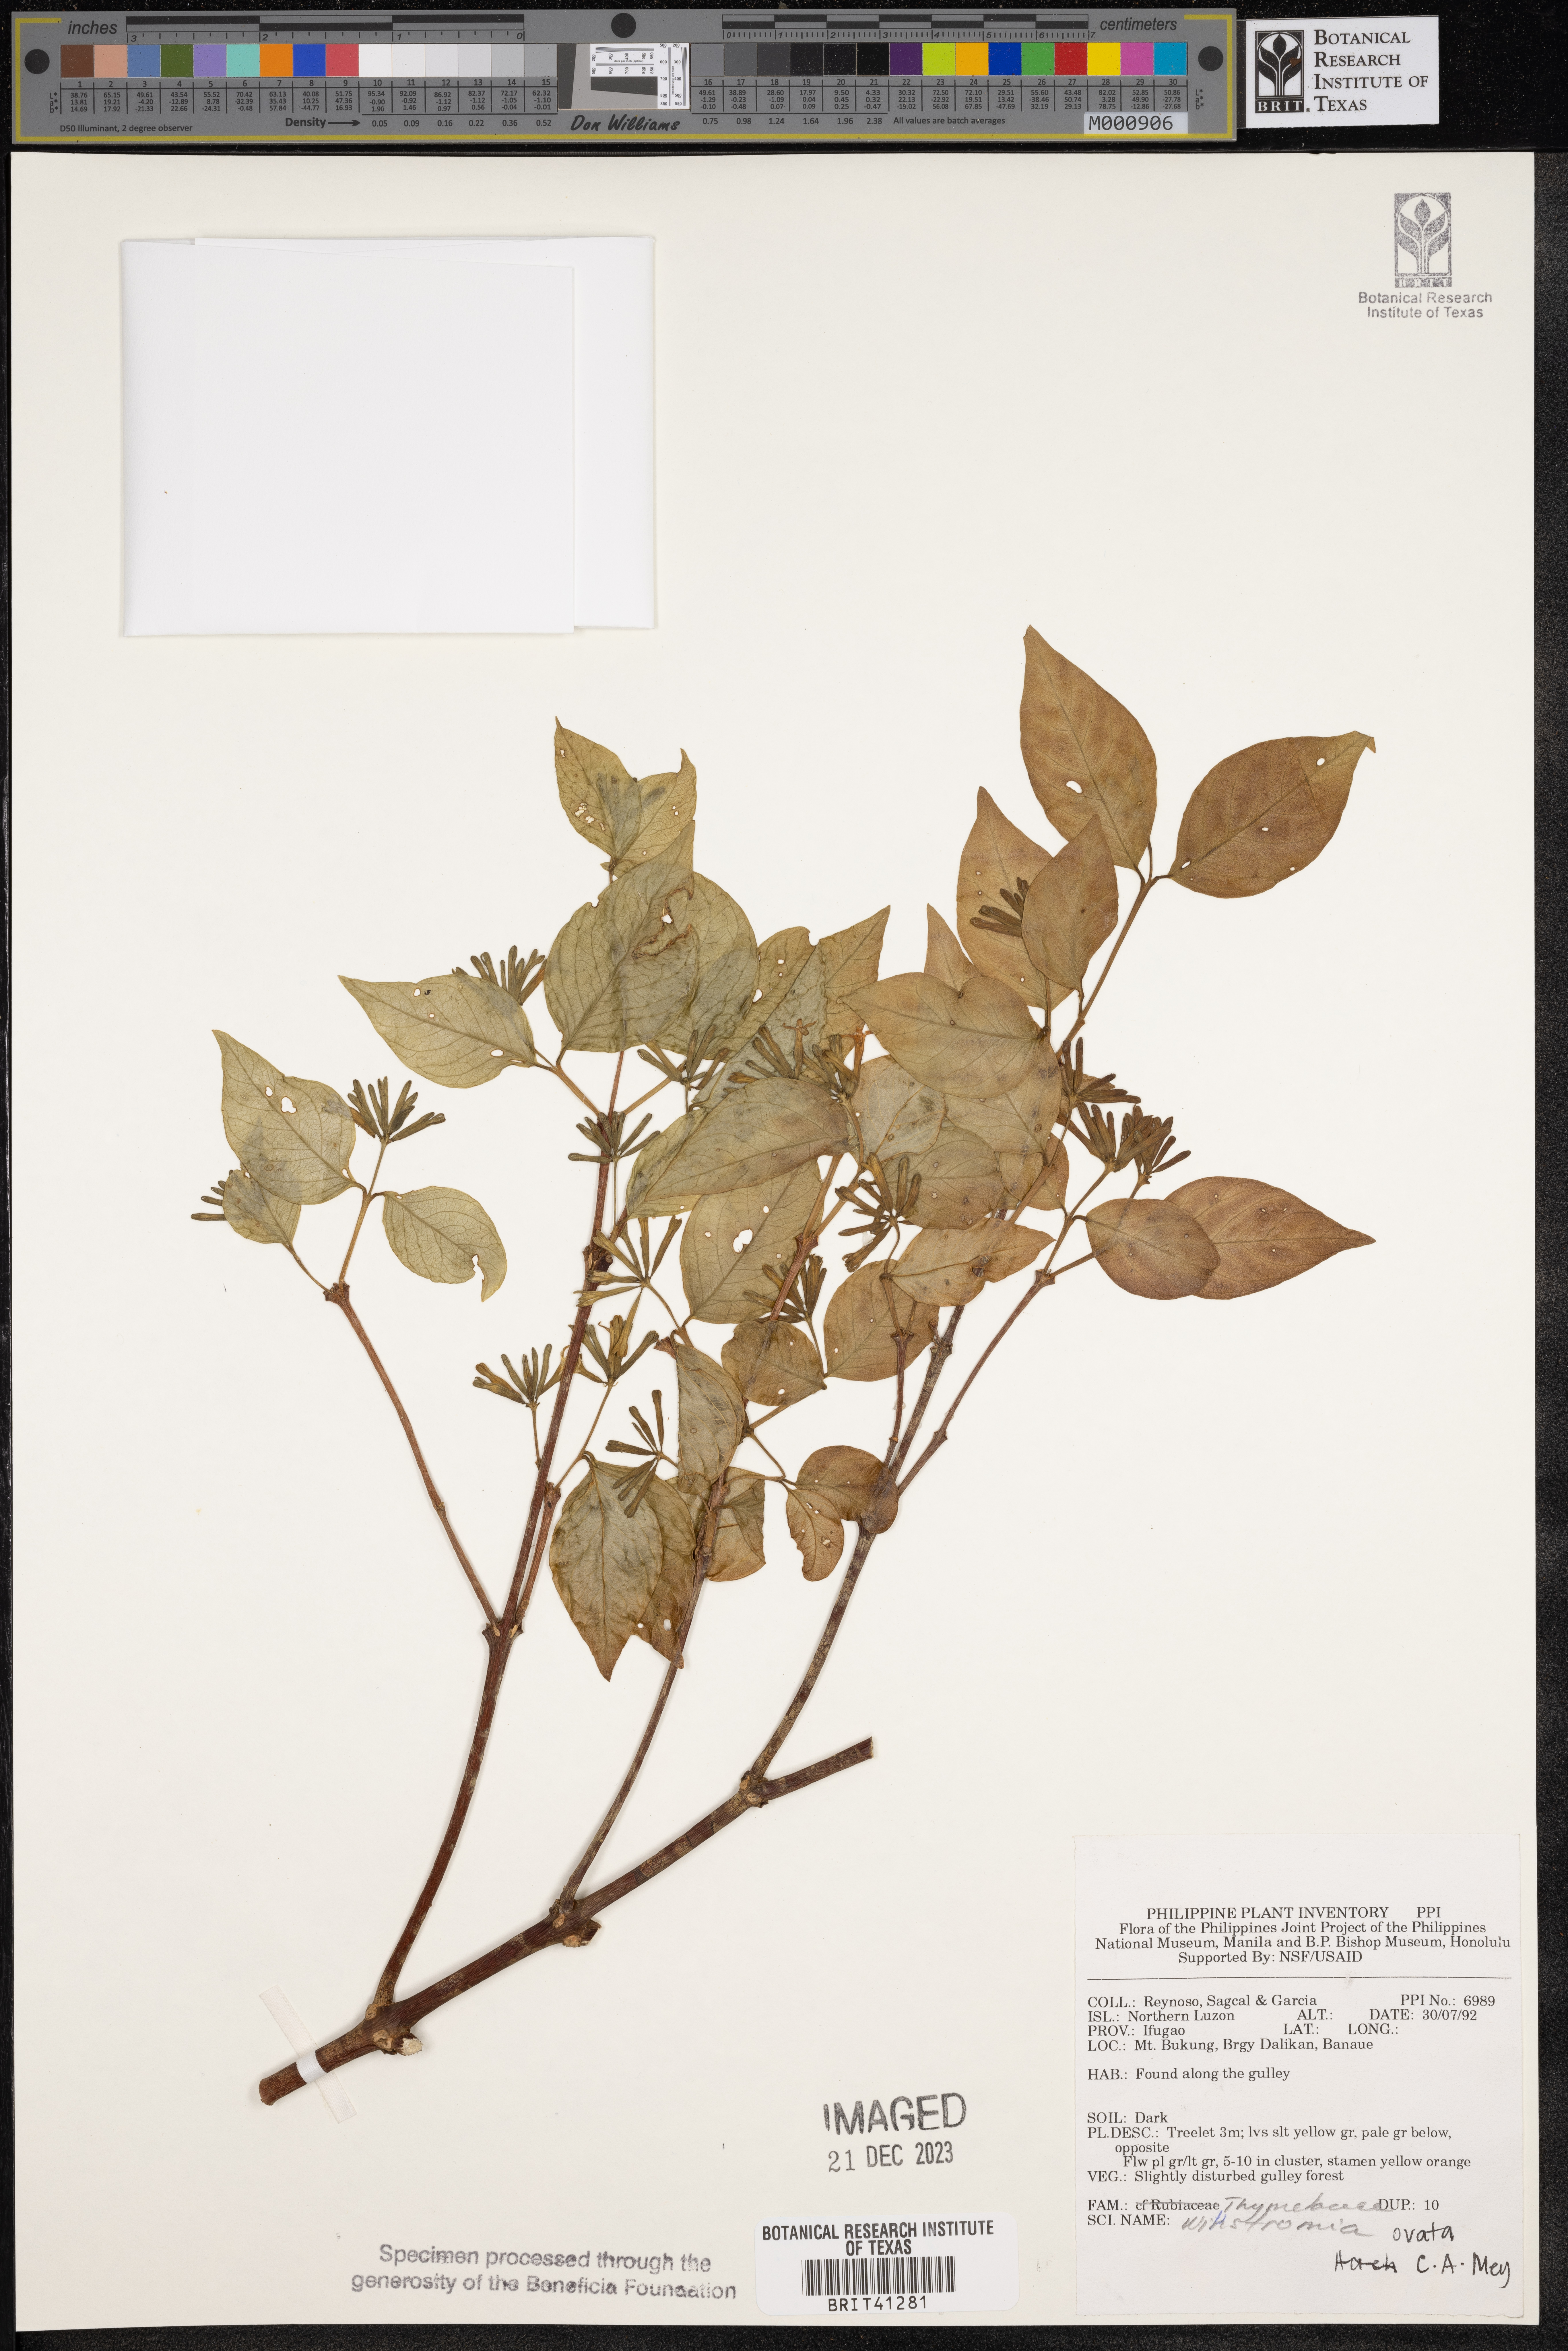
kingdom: Plantae
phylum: Tracheophyta
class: Magnoliopsida
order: Malvales
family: Thymelaeaceae
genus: Wikstroemia
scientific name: Wikstroemia ovata
